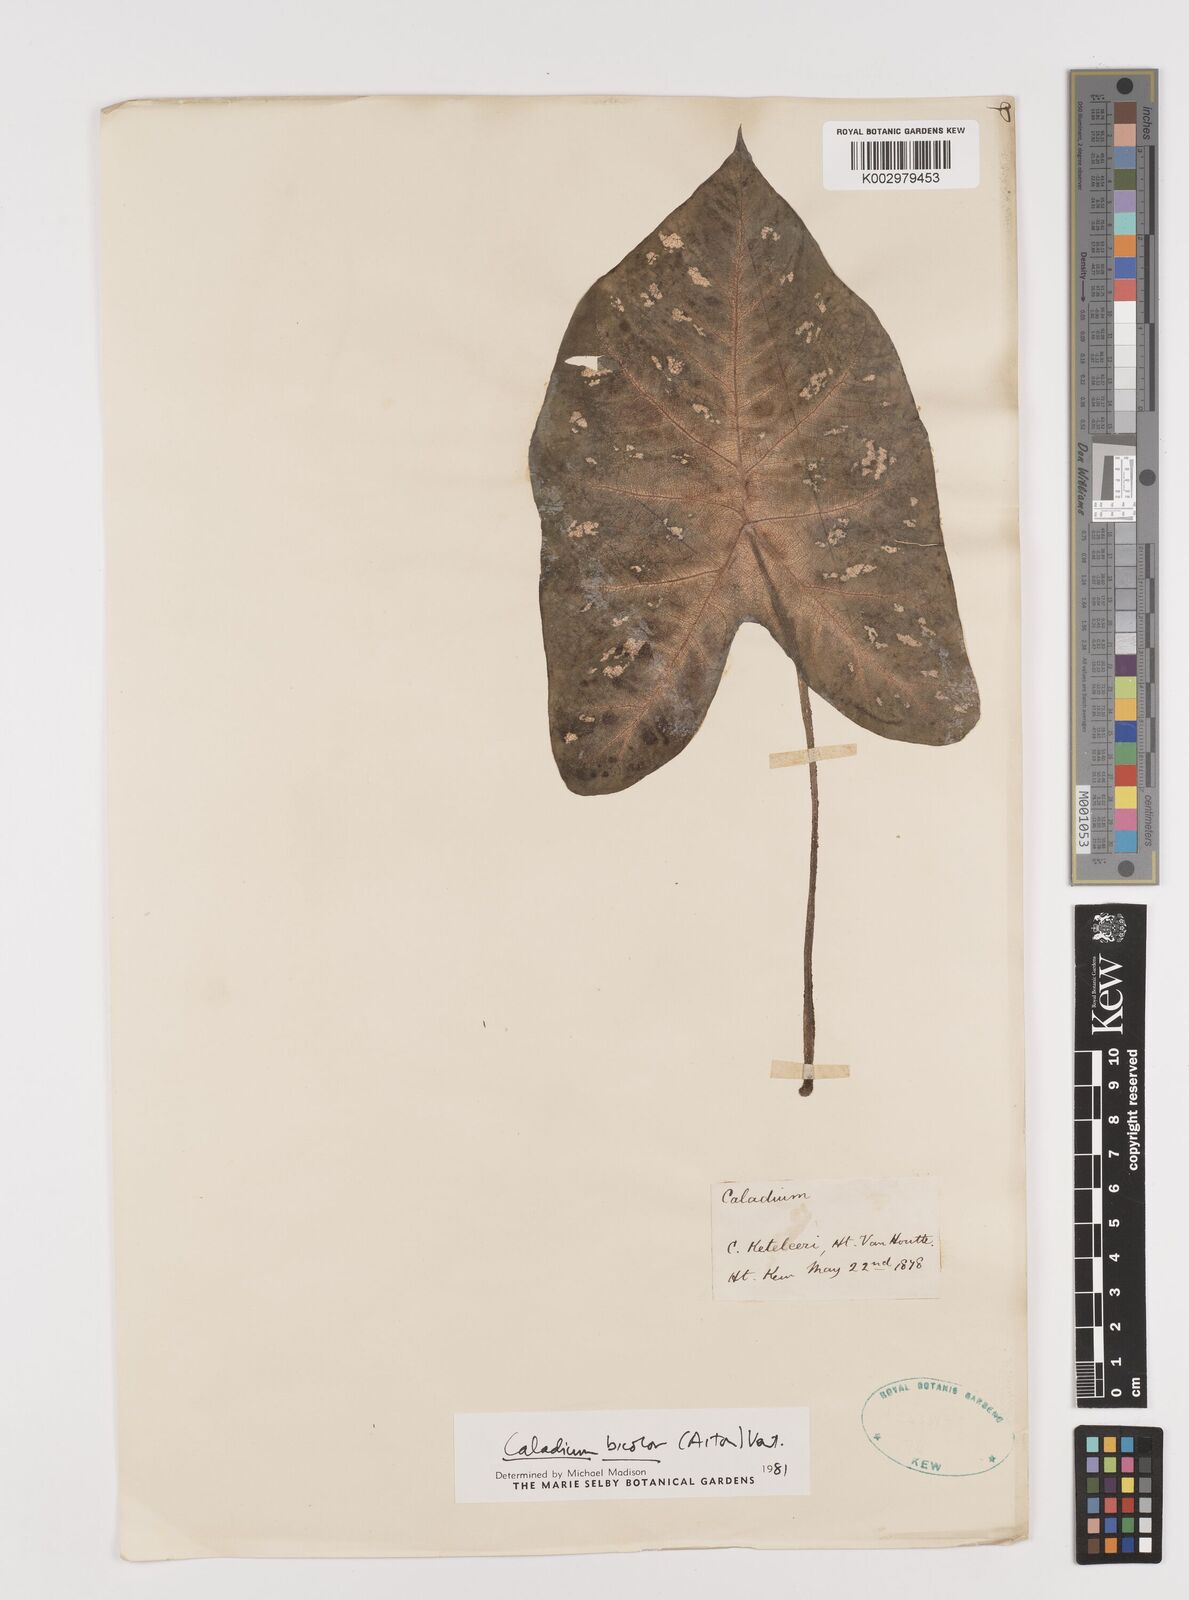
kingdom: Plantae
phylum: Tracheophyta
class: Liliopsida
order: Alismatales
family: Araceae
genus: Caladium
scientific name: Caladium bicolor
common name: Artist's pallet
